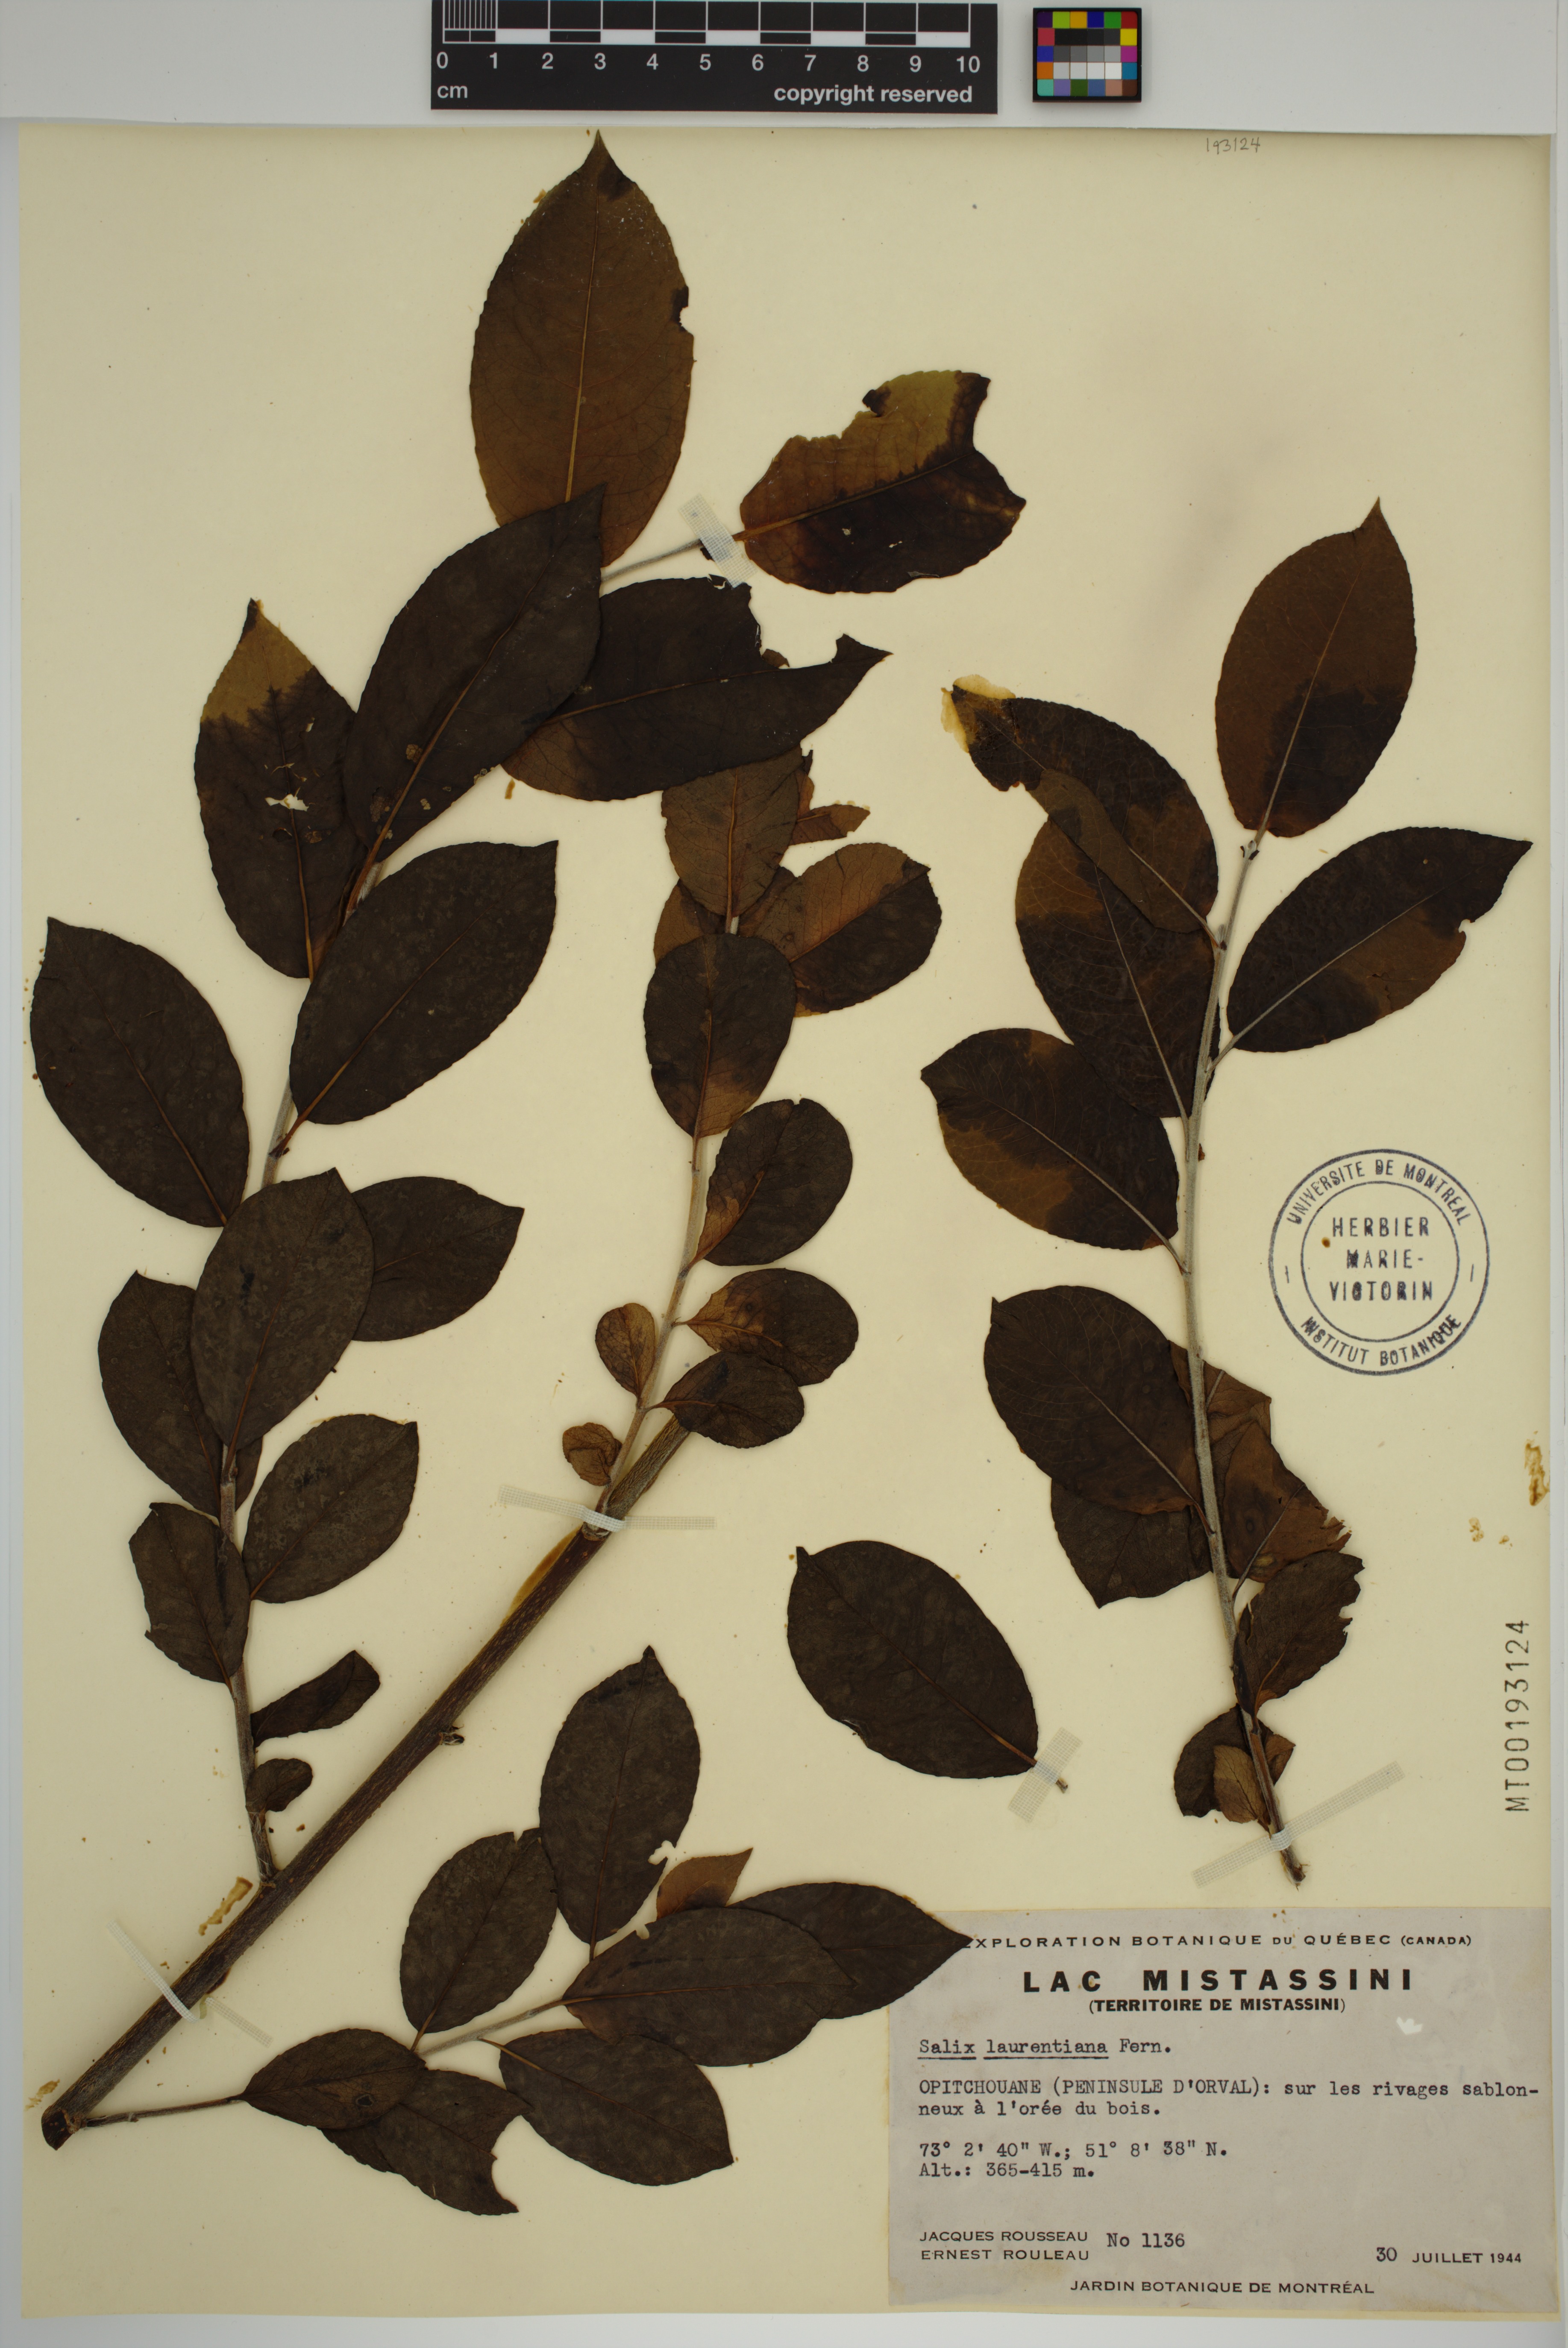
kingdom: Plantae
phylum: Tracheophyta
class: Magnoliopsida
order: Malpighiales
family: Salicaceae
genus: Salix
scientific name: Salix laurentiana
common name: Gulf of st. lawrence willow
